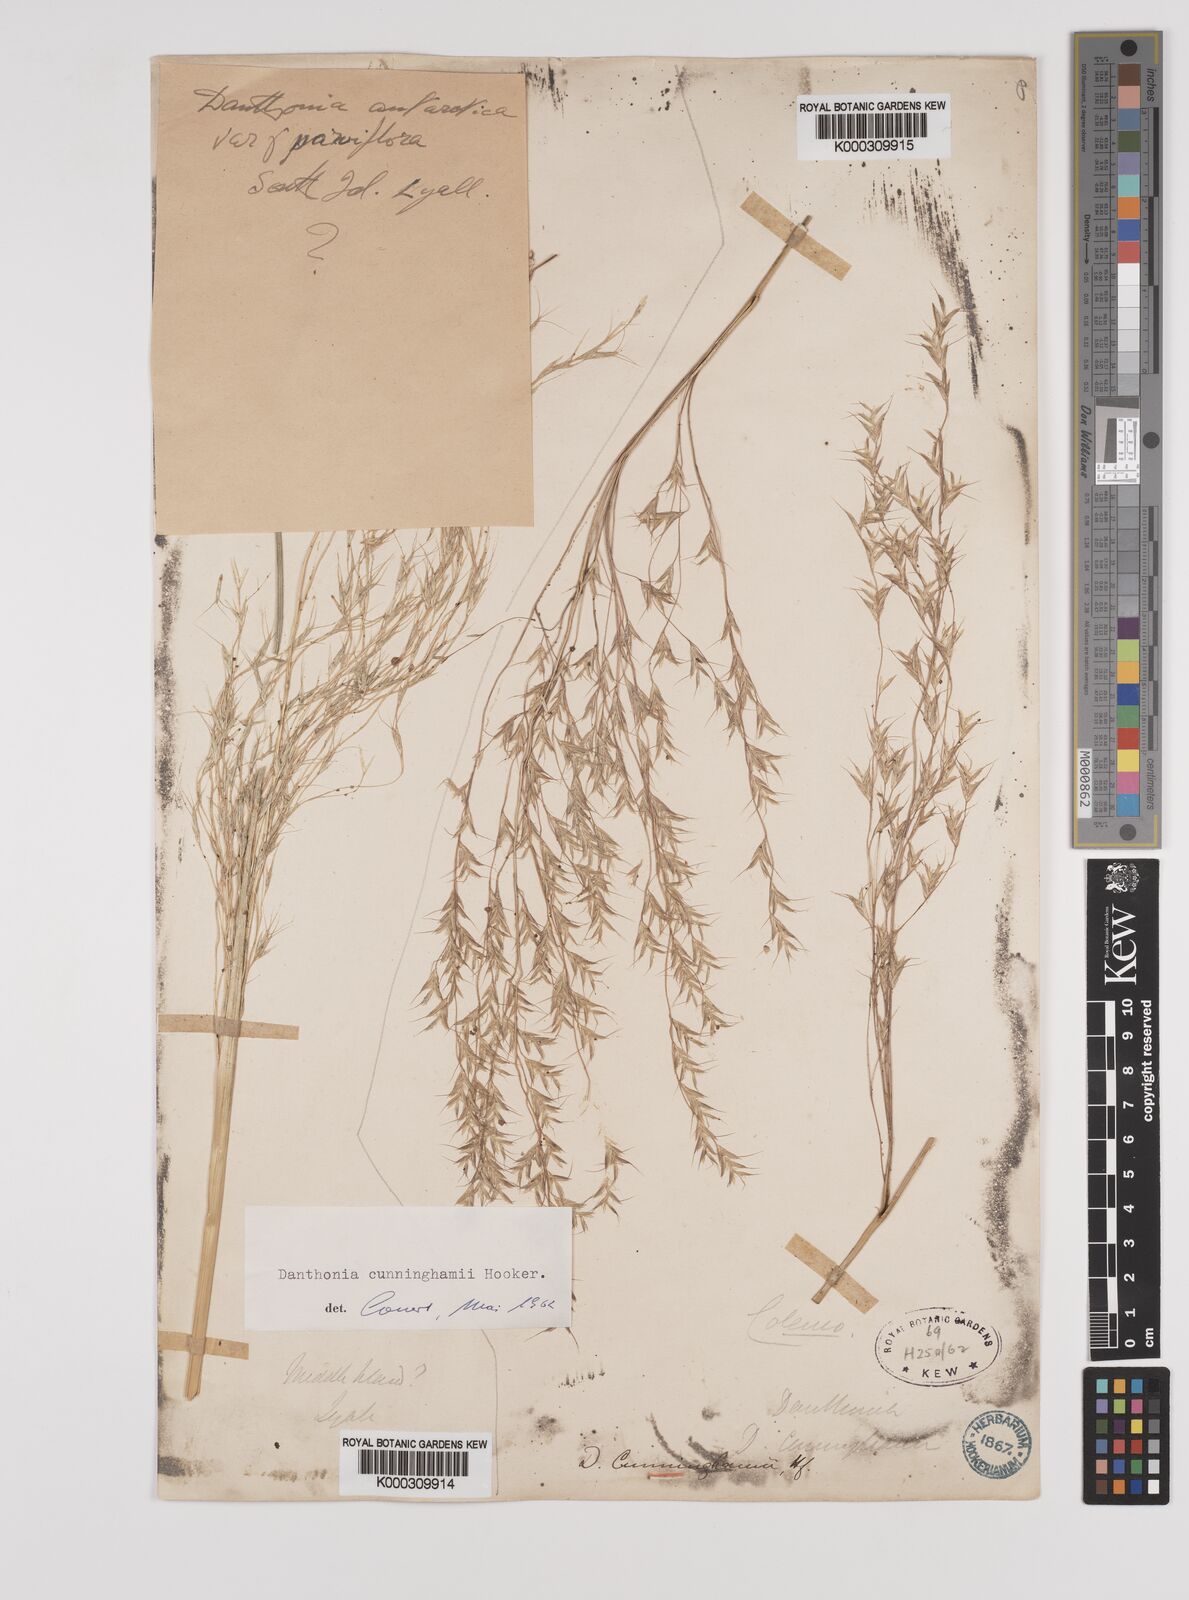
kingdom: Plantae
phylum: Tracheophyta
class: Liliopsida
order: Poales
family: Poaceae
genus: Chionochloa
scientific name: Chionochloa conspicua
